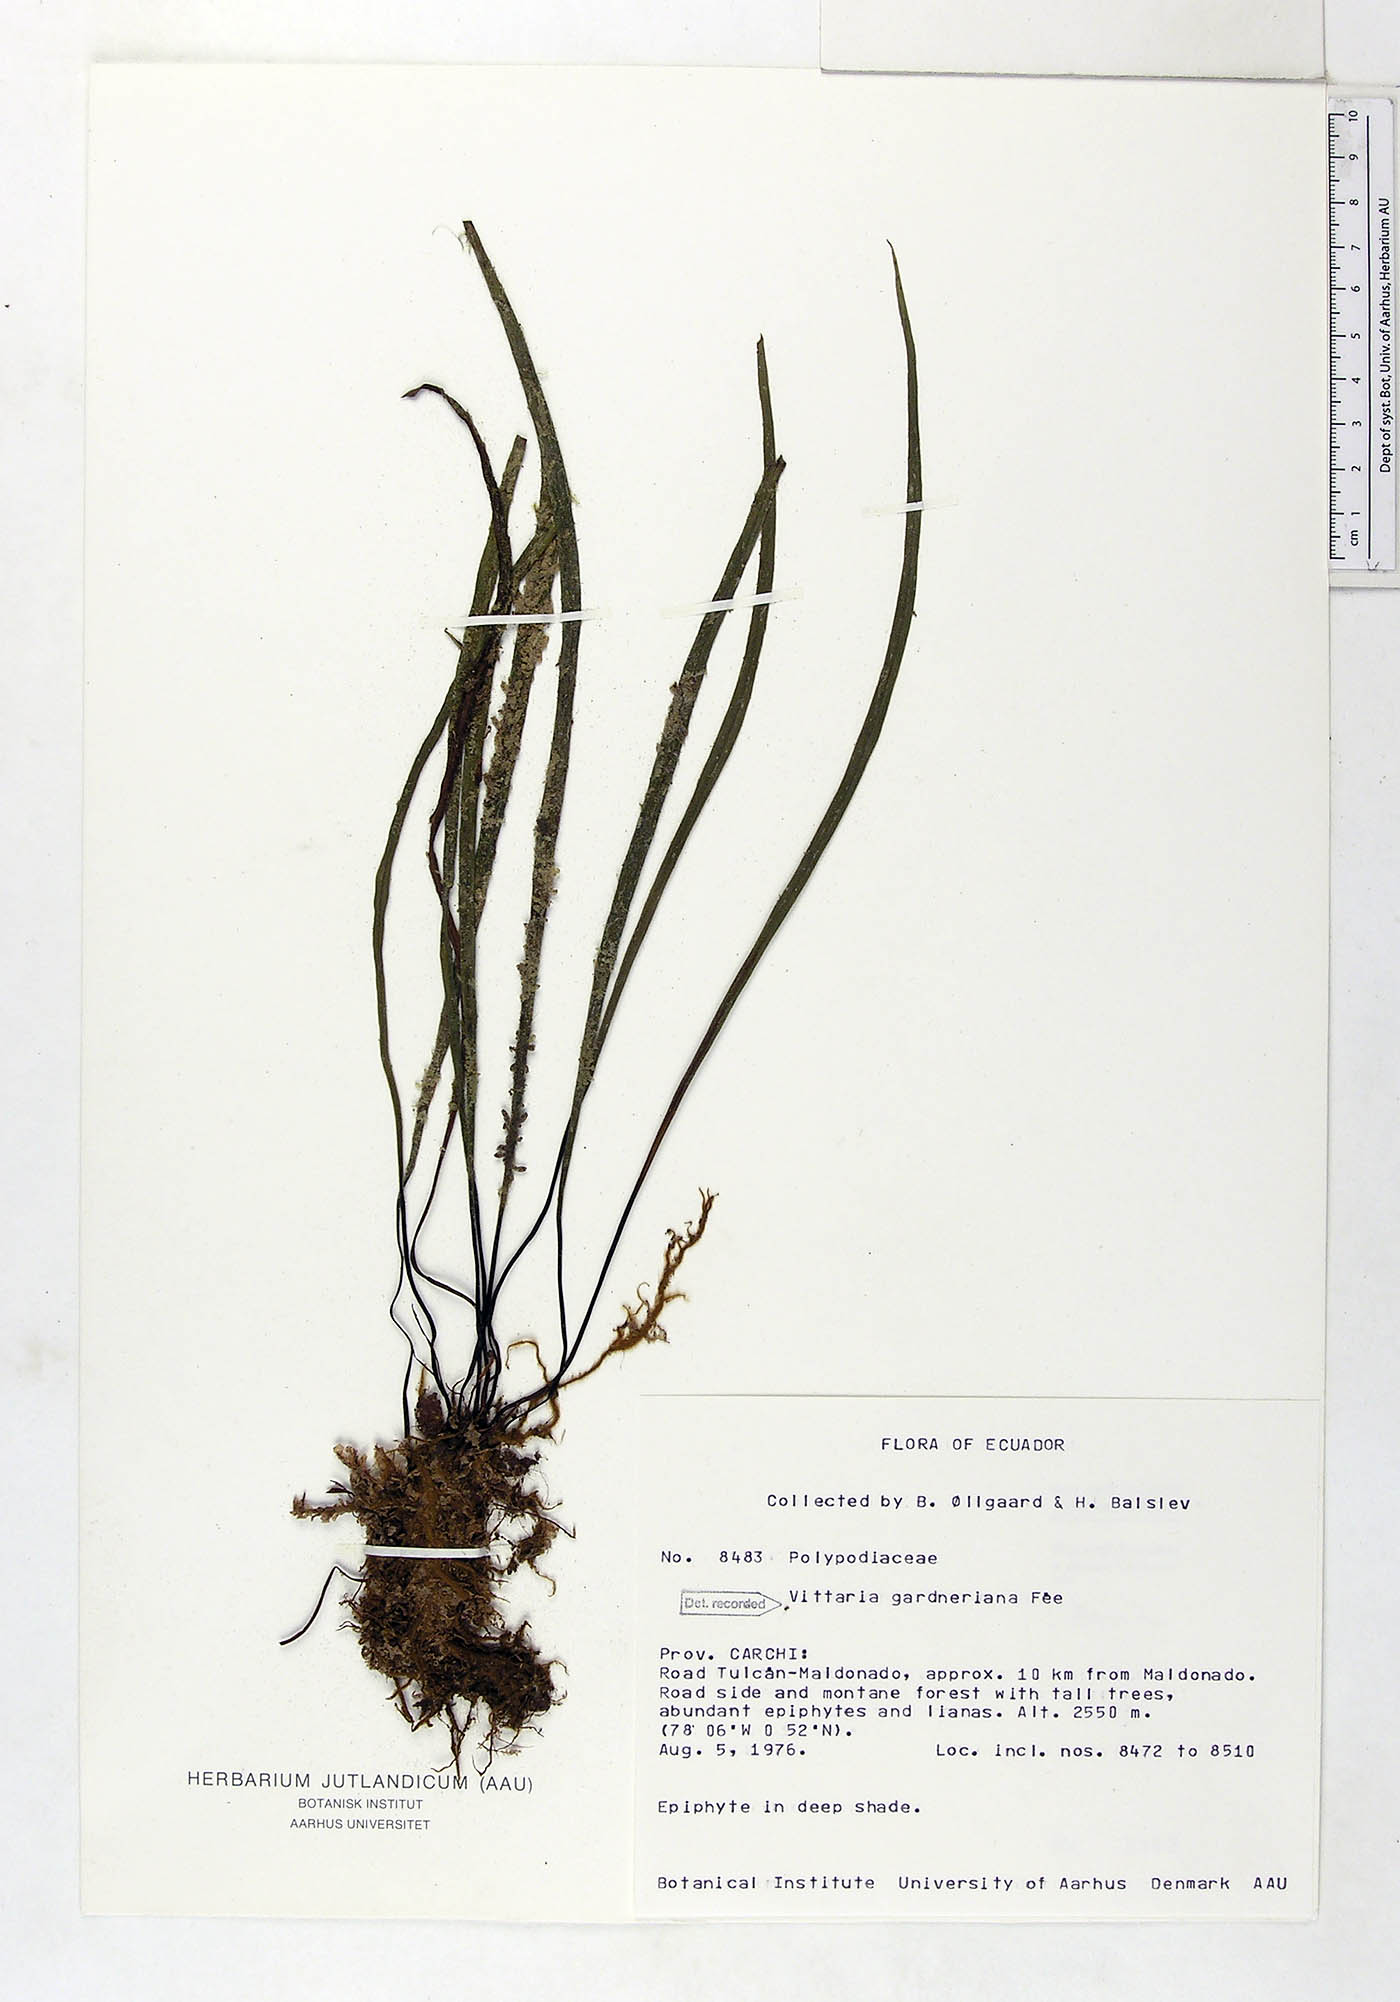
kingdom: Plantae
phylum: Tracheophyta
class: Polypodiopsida
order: Polypodiales
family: Pteridaceae
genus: Radiovittaria
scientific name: Radiovittaria gardneriana
